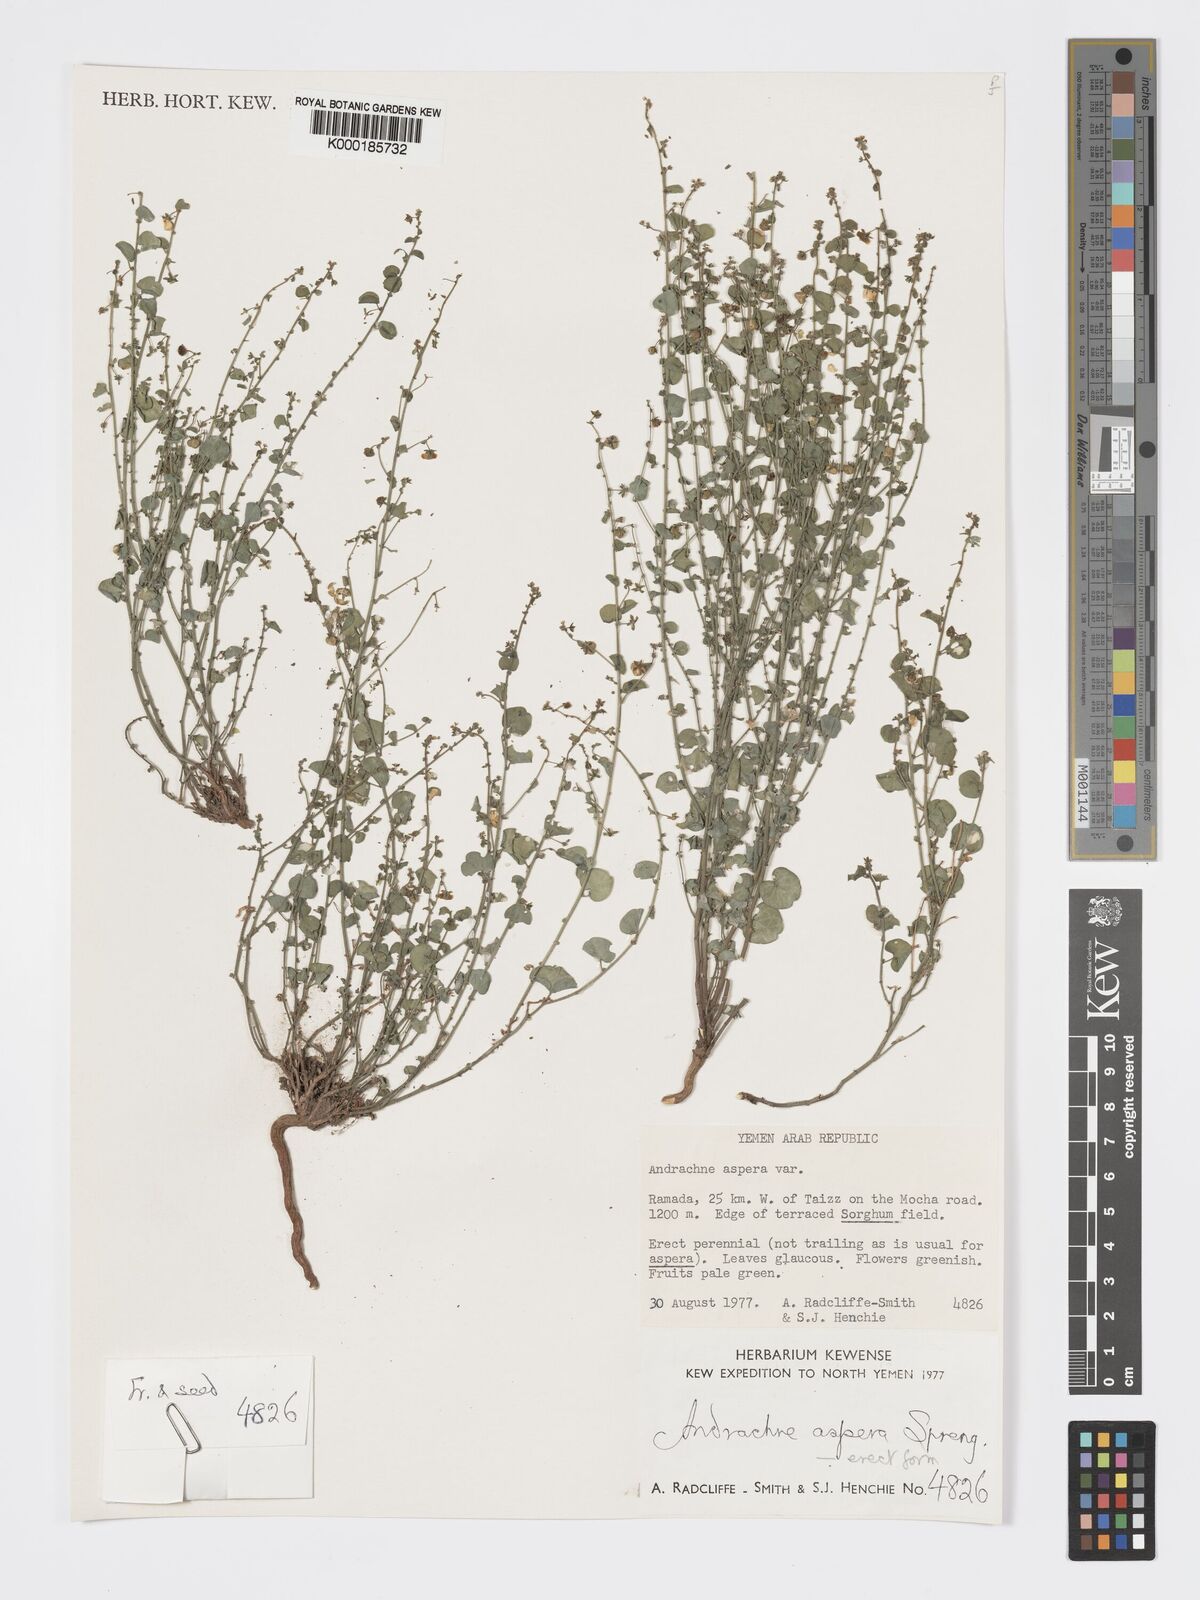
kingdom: Plantae
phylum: Tracheophyta
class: Magnoliopsida
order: Malpighiales
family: Phyllanthaceae
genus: Andrachne
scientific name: Andrachne aspera
